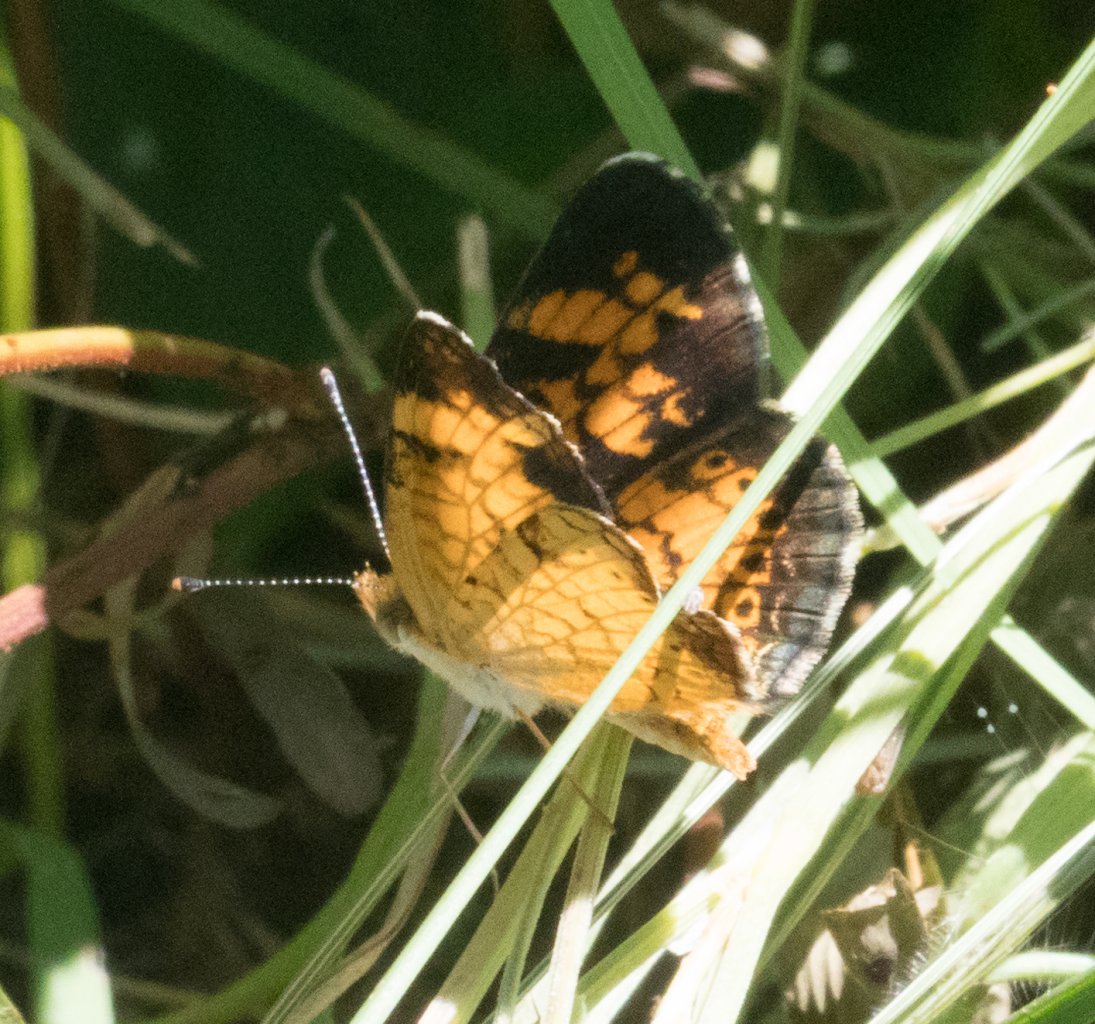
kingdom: Animalia
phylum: Arthropoda
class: Insecta
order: Lepidoptera
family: Nymphalidae
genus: Phyciodes
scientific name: Phyciodes tharos
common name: Pearl Crescent
